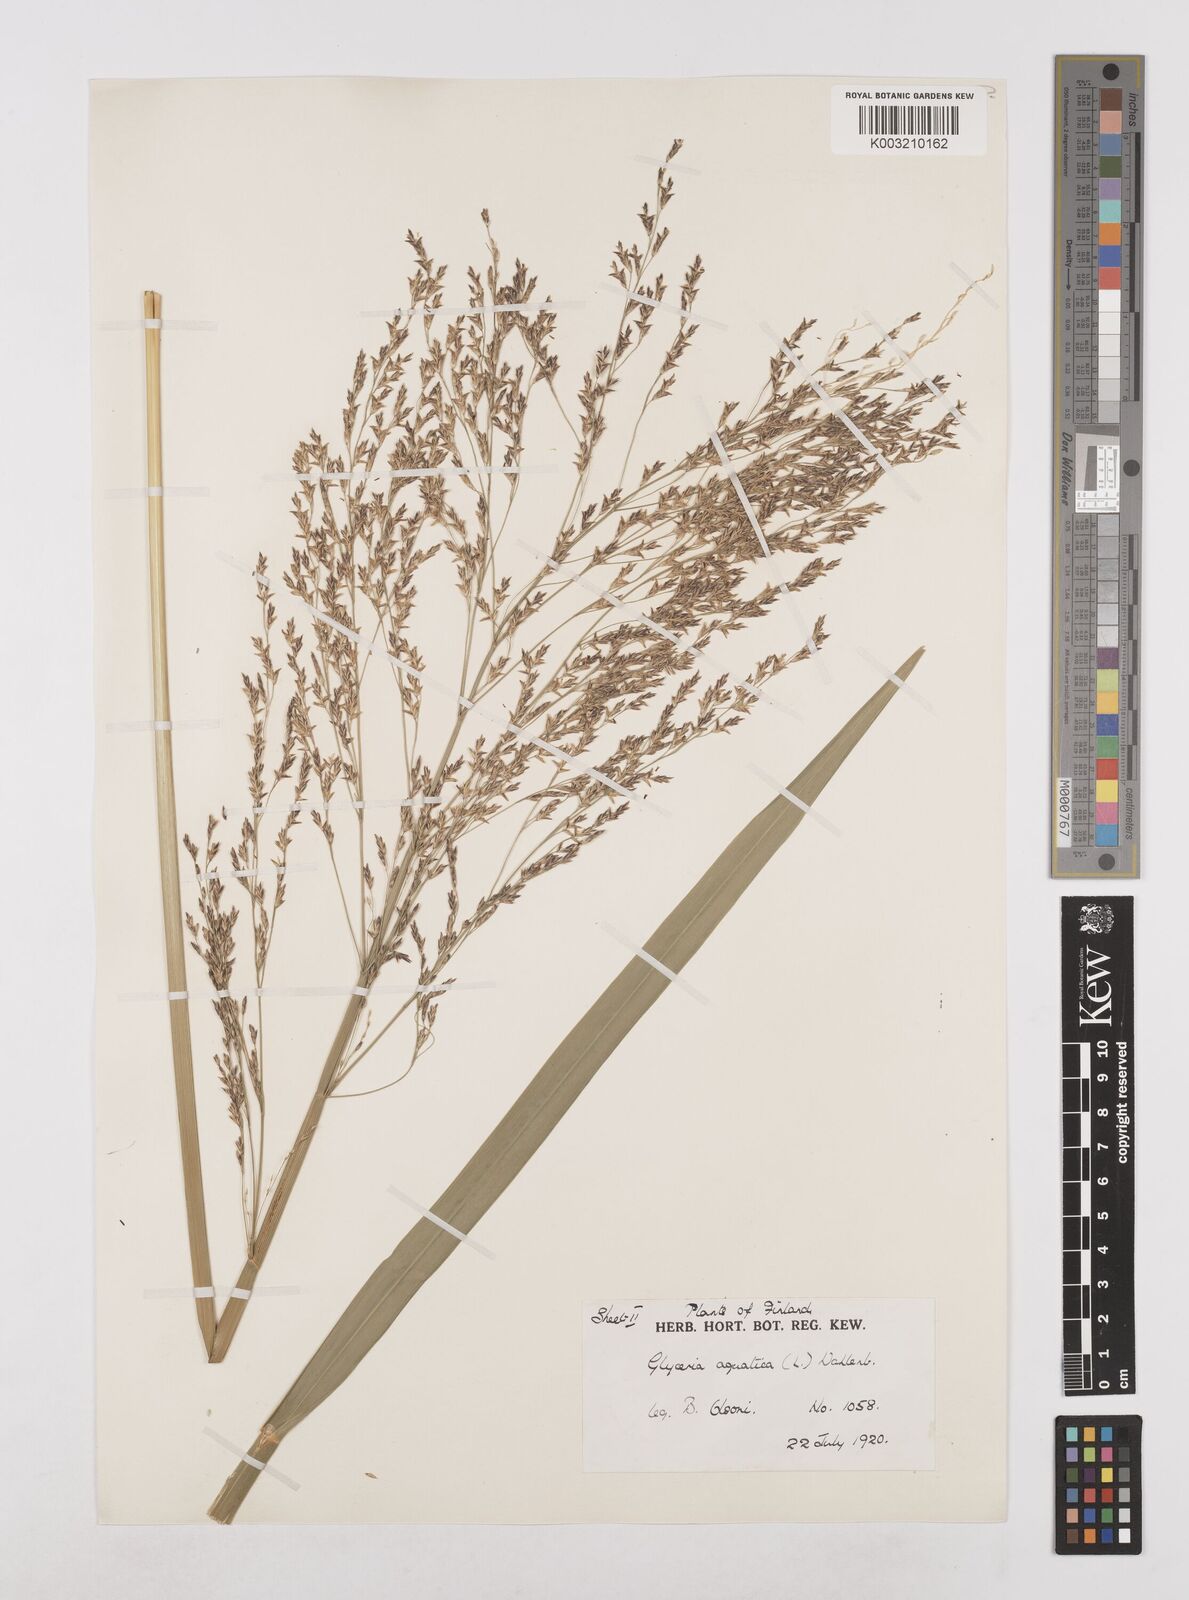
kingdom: Plantae
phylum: Tracheophyta
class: Liliopsida
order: Poales
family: Poaceae
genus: Glyceria
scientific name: Glyceria maxima
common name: Reed mannagrass
